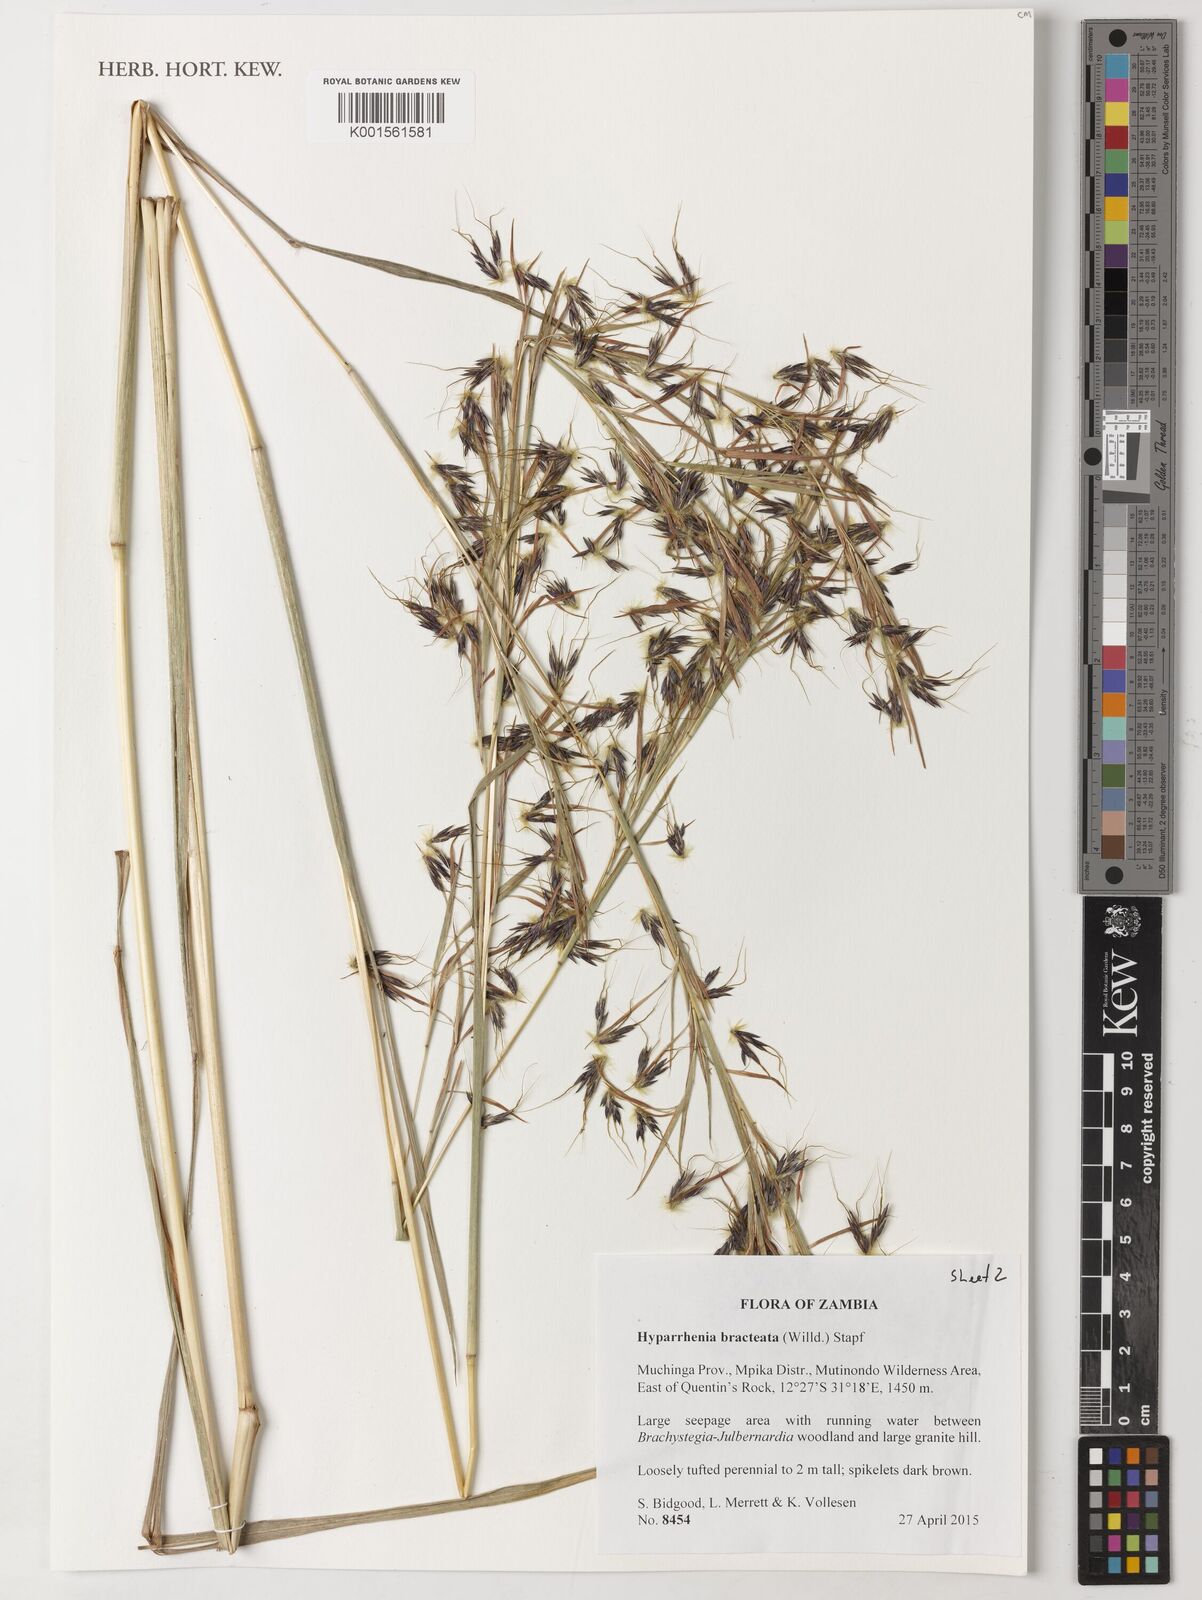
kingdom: Plantae
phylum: Tracheophyta
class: Liliopsida
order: Poales
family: Poaceae
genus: Hyparrhenia
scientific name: Hyparrhenia bracteata
